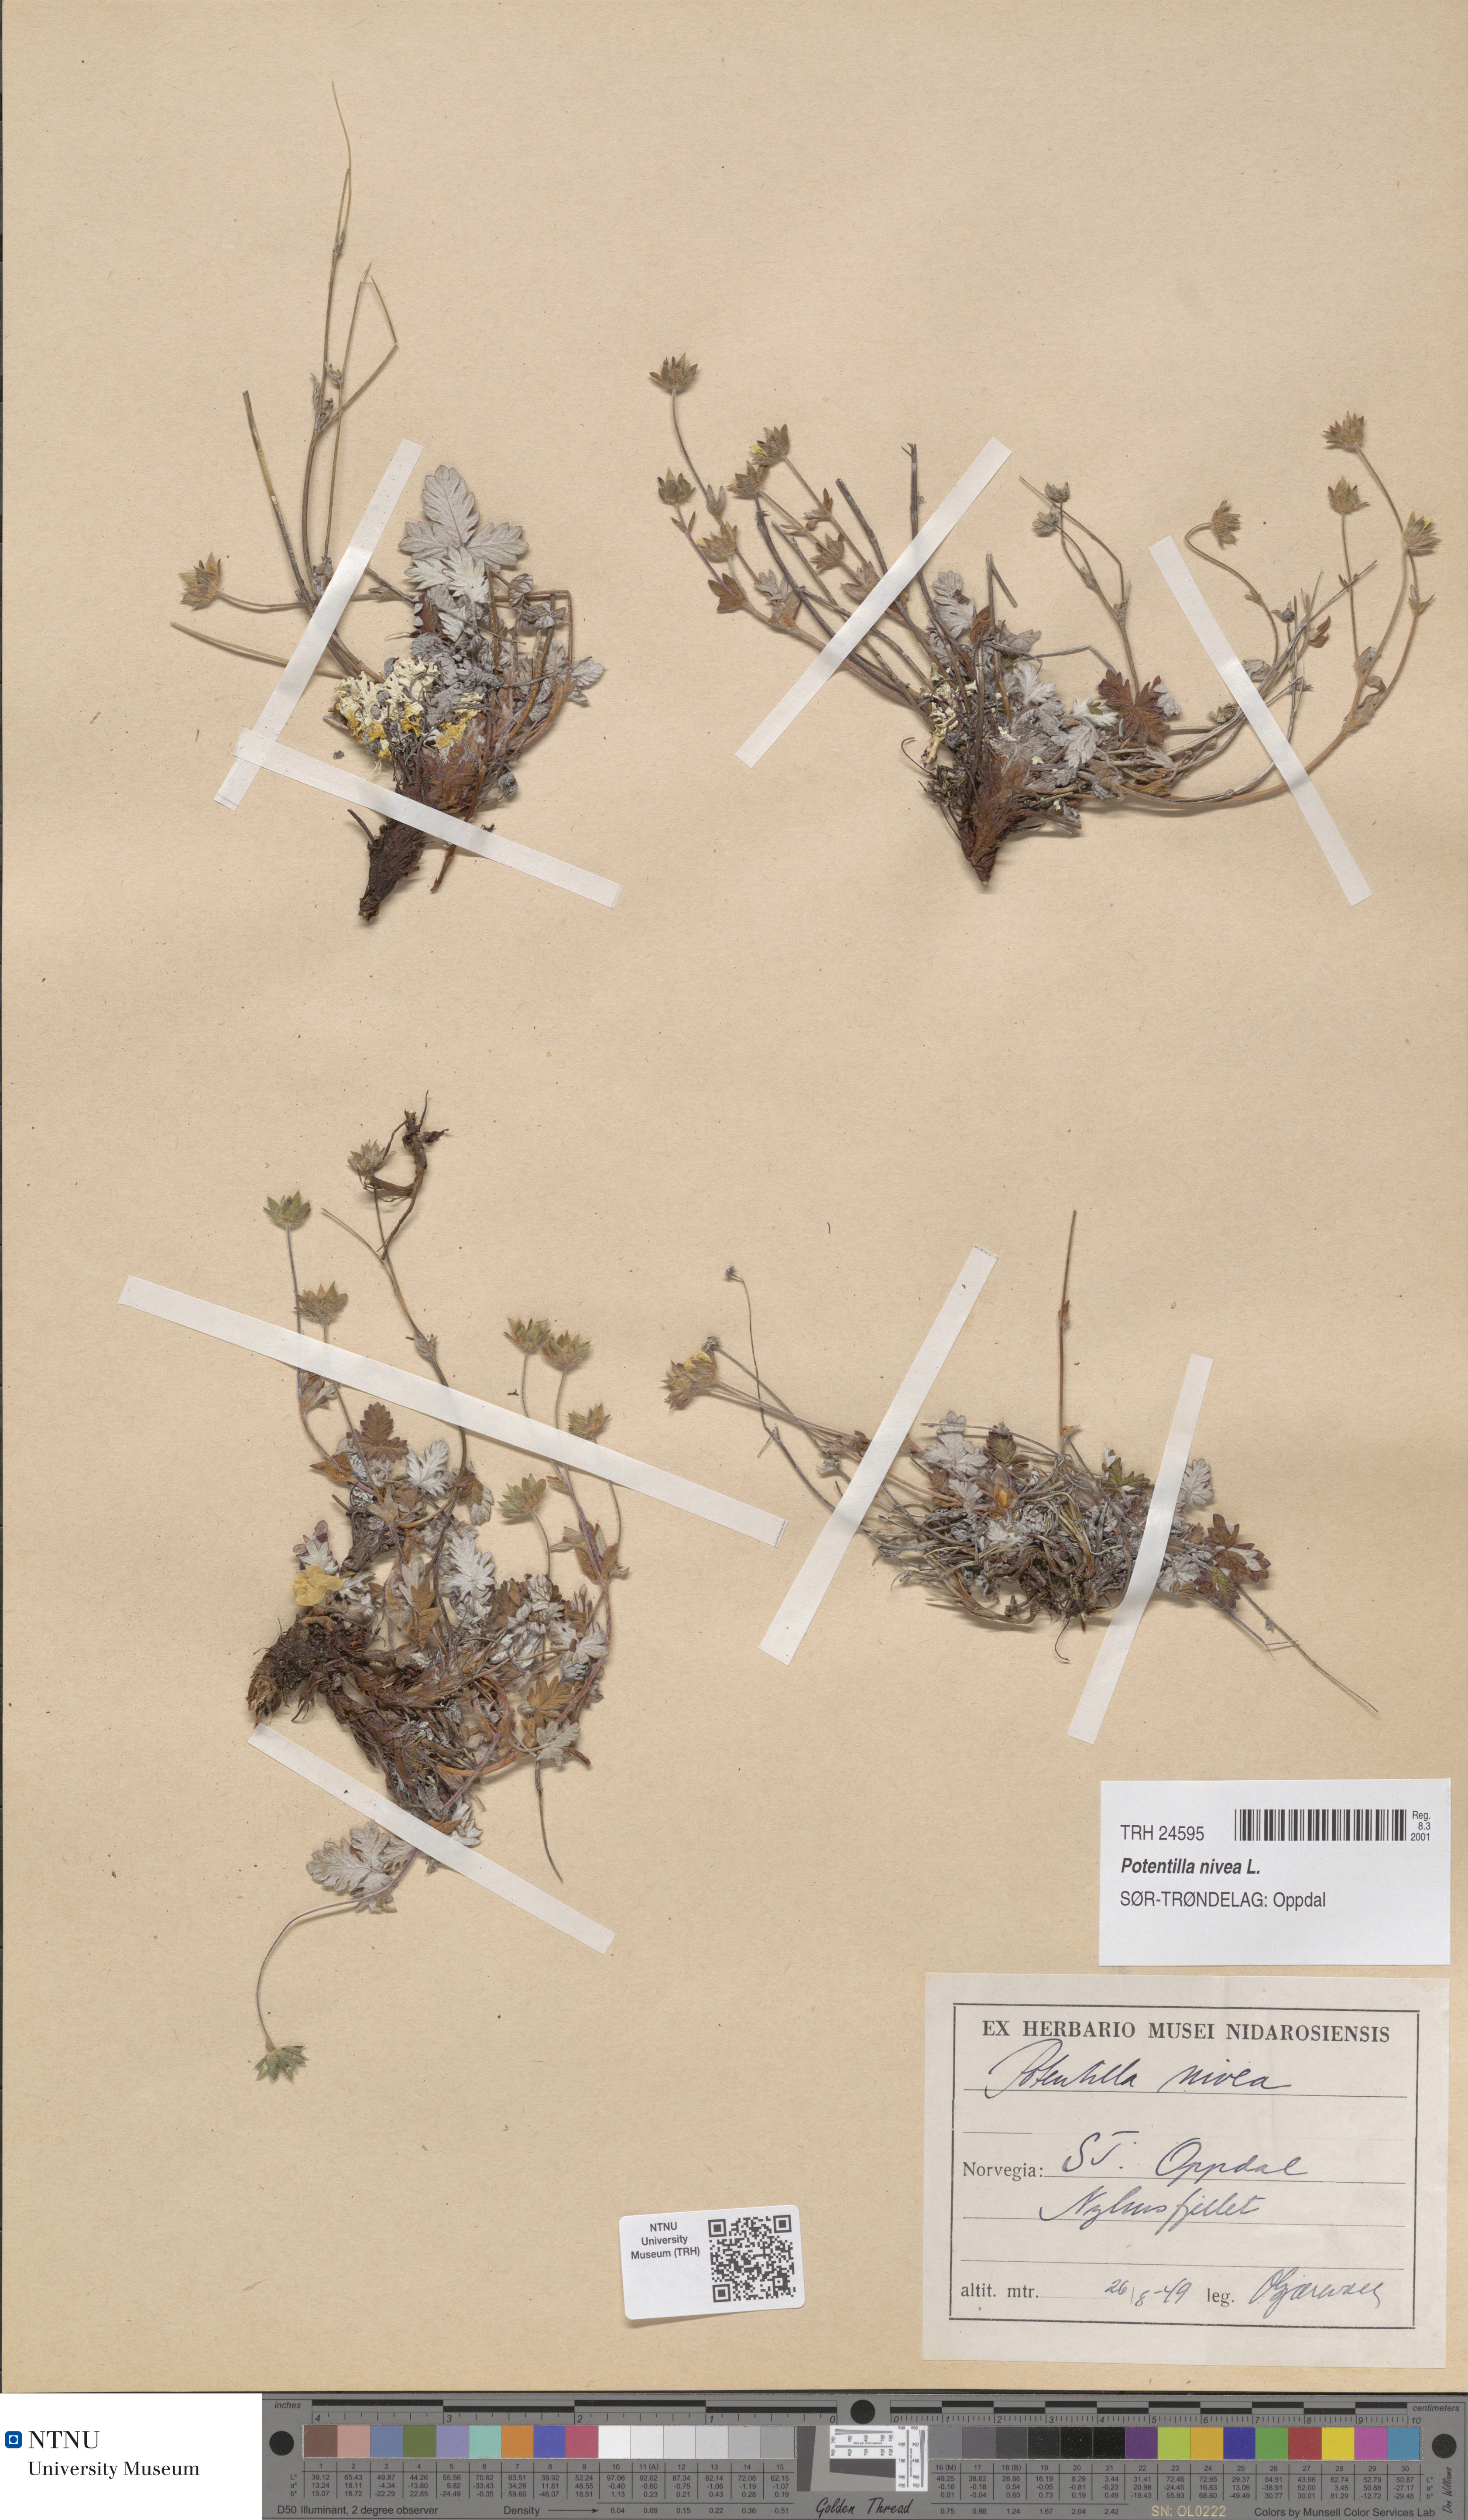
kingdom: Plantae
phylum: Tracheophyta
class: Magnoliopsida
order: Rosales
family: Rosaceae
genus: Potentilla
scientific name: Potentilla nivea
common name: Snow cinquefoil
